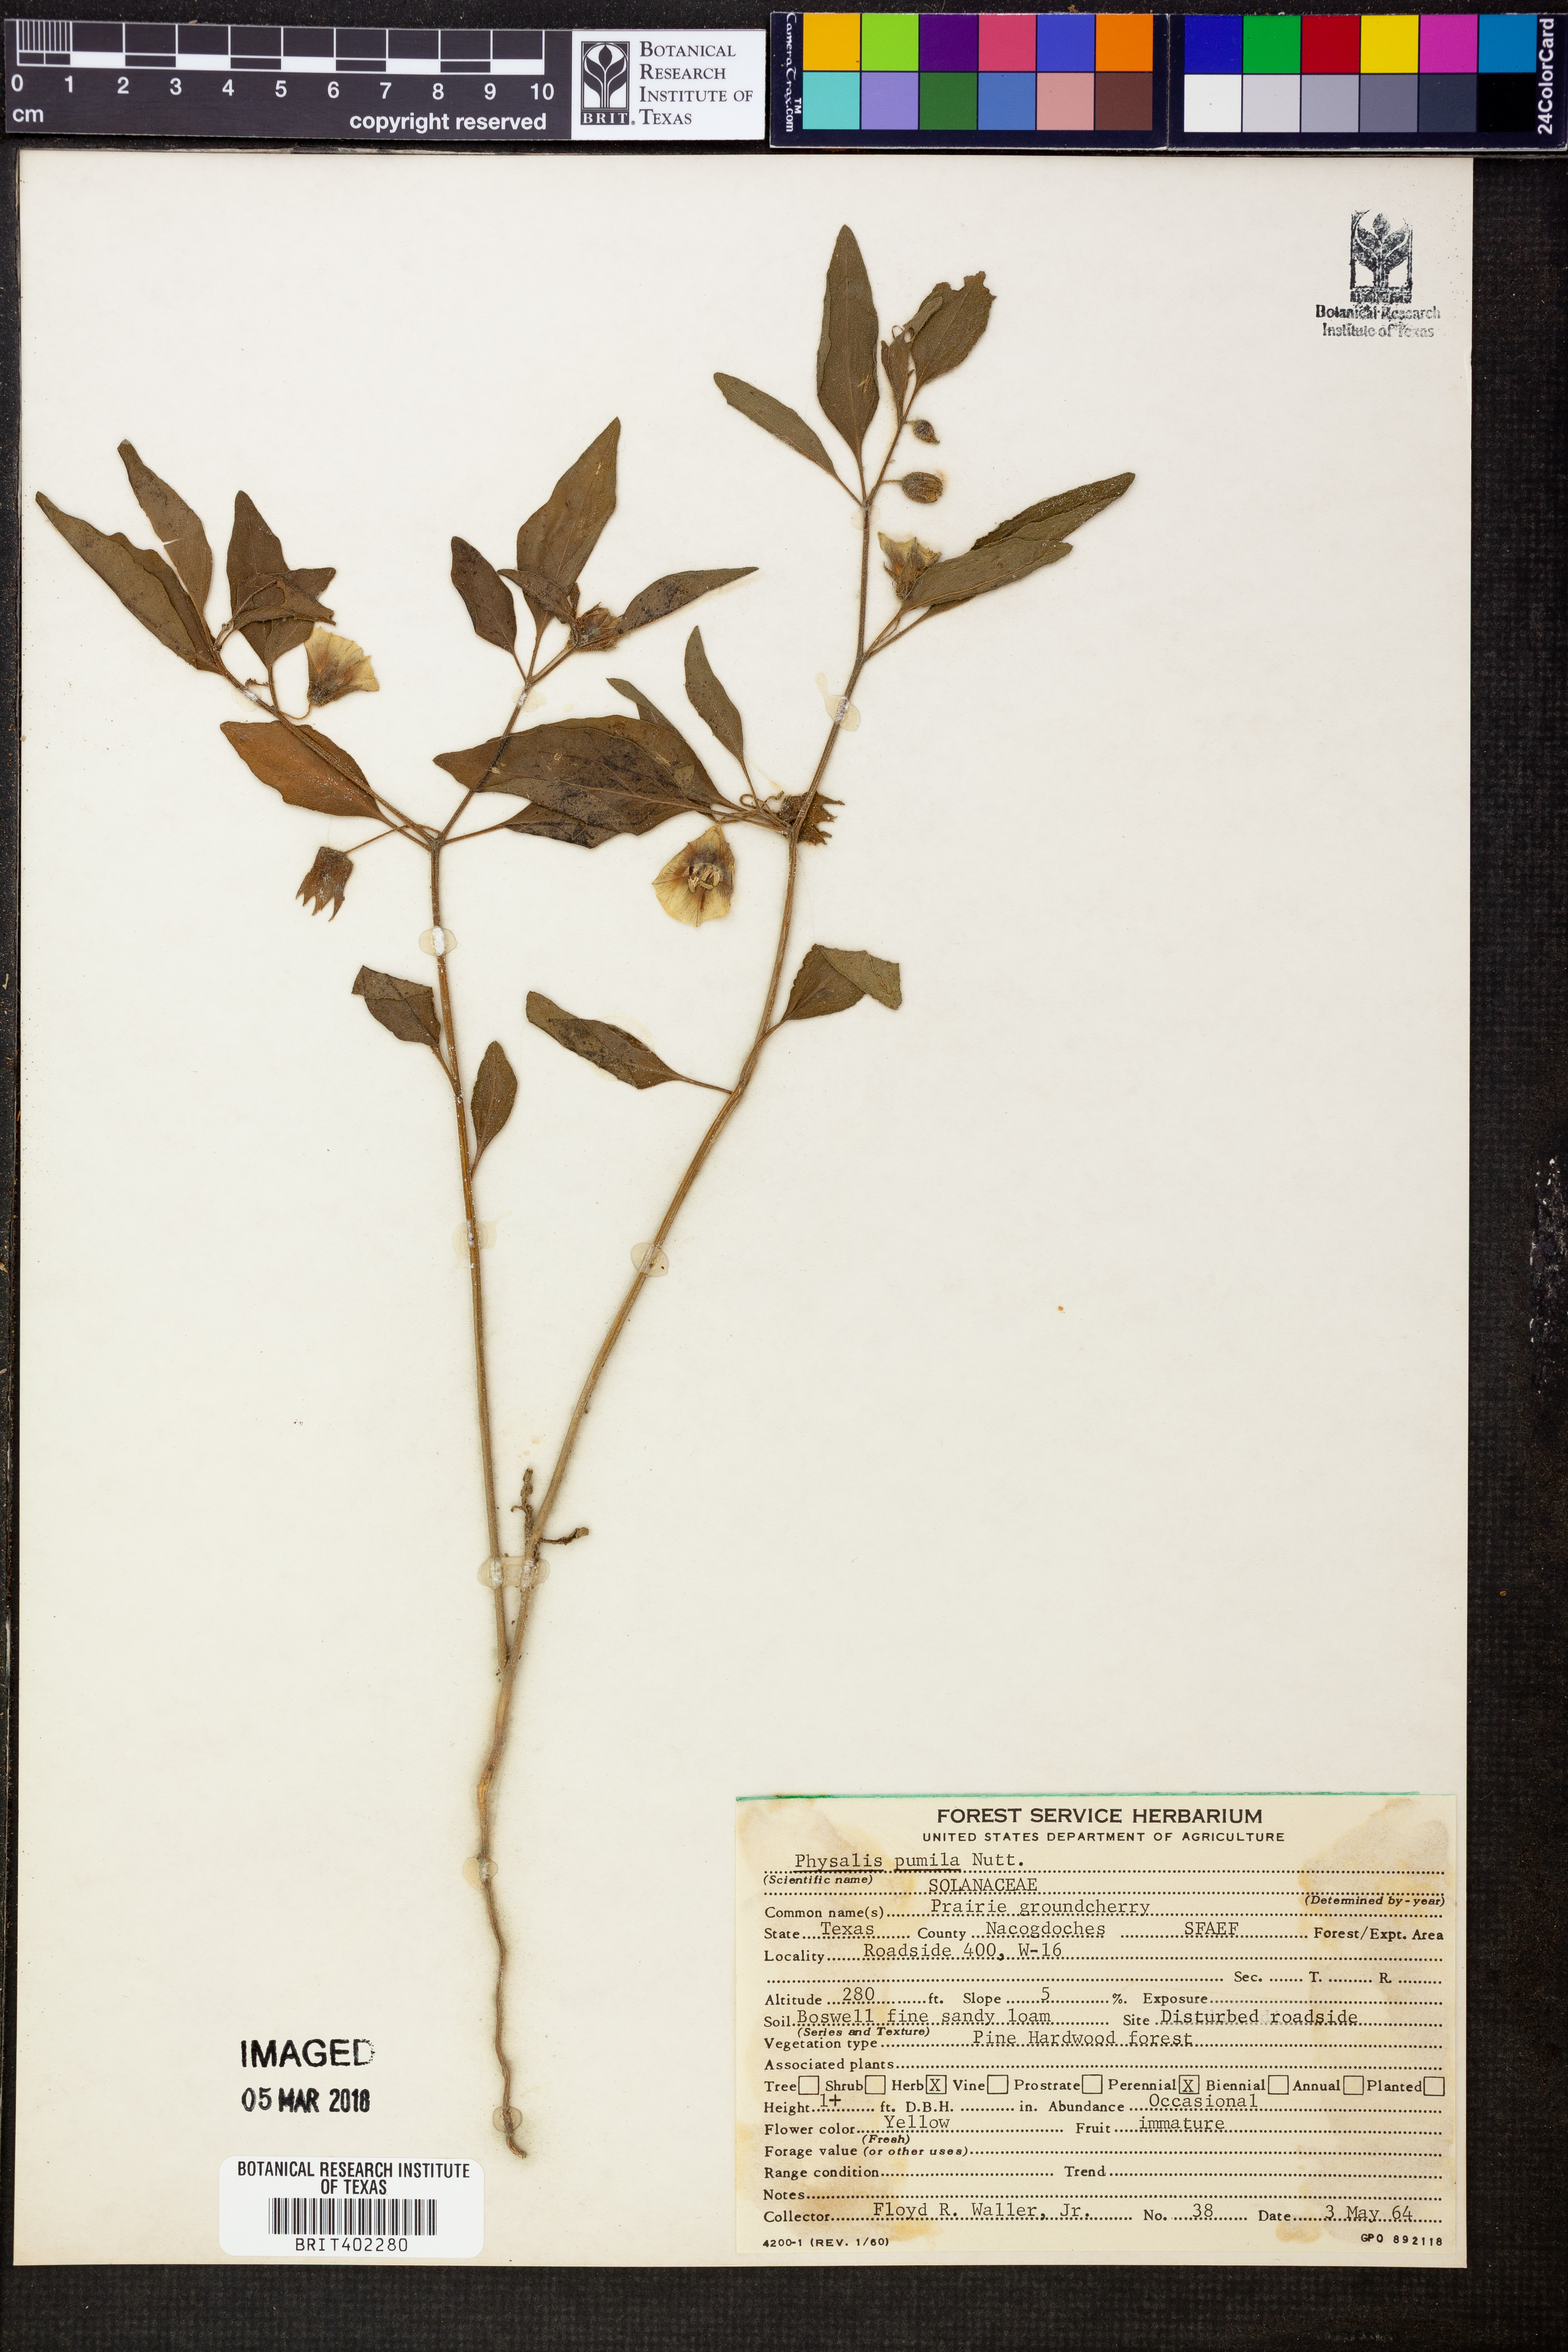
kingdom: Plantae
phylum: Tracheophyta
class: Magnoliopsida
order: Solanales
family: Solanaceae
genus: Physalis
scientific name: Physalis pumila
